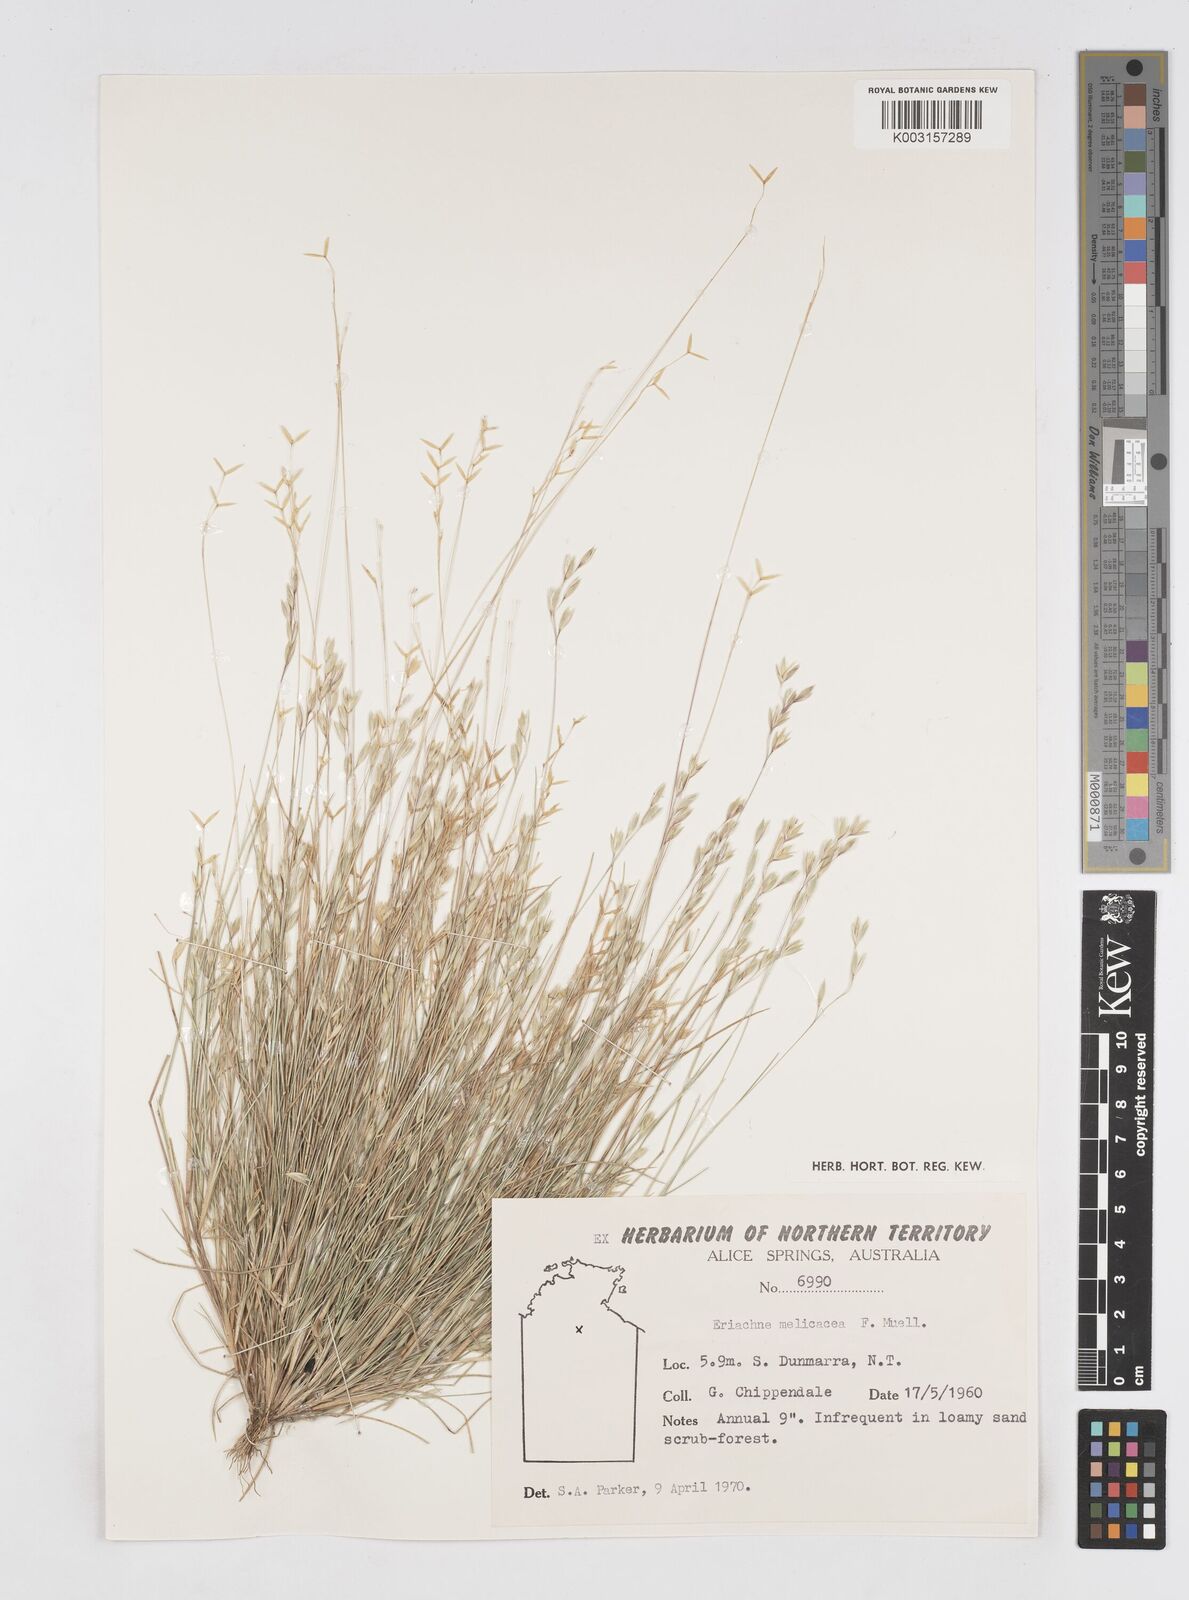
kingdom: Plantae
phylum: Tracheophyta
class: Liliopsida
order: Poales
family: Poaceae
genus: Eriachne
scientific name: Eriachne melicacea
